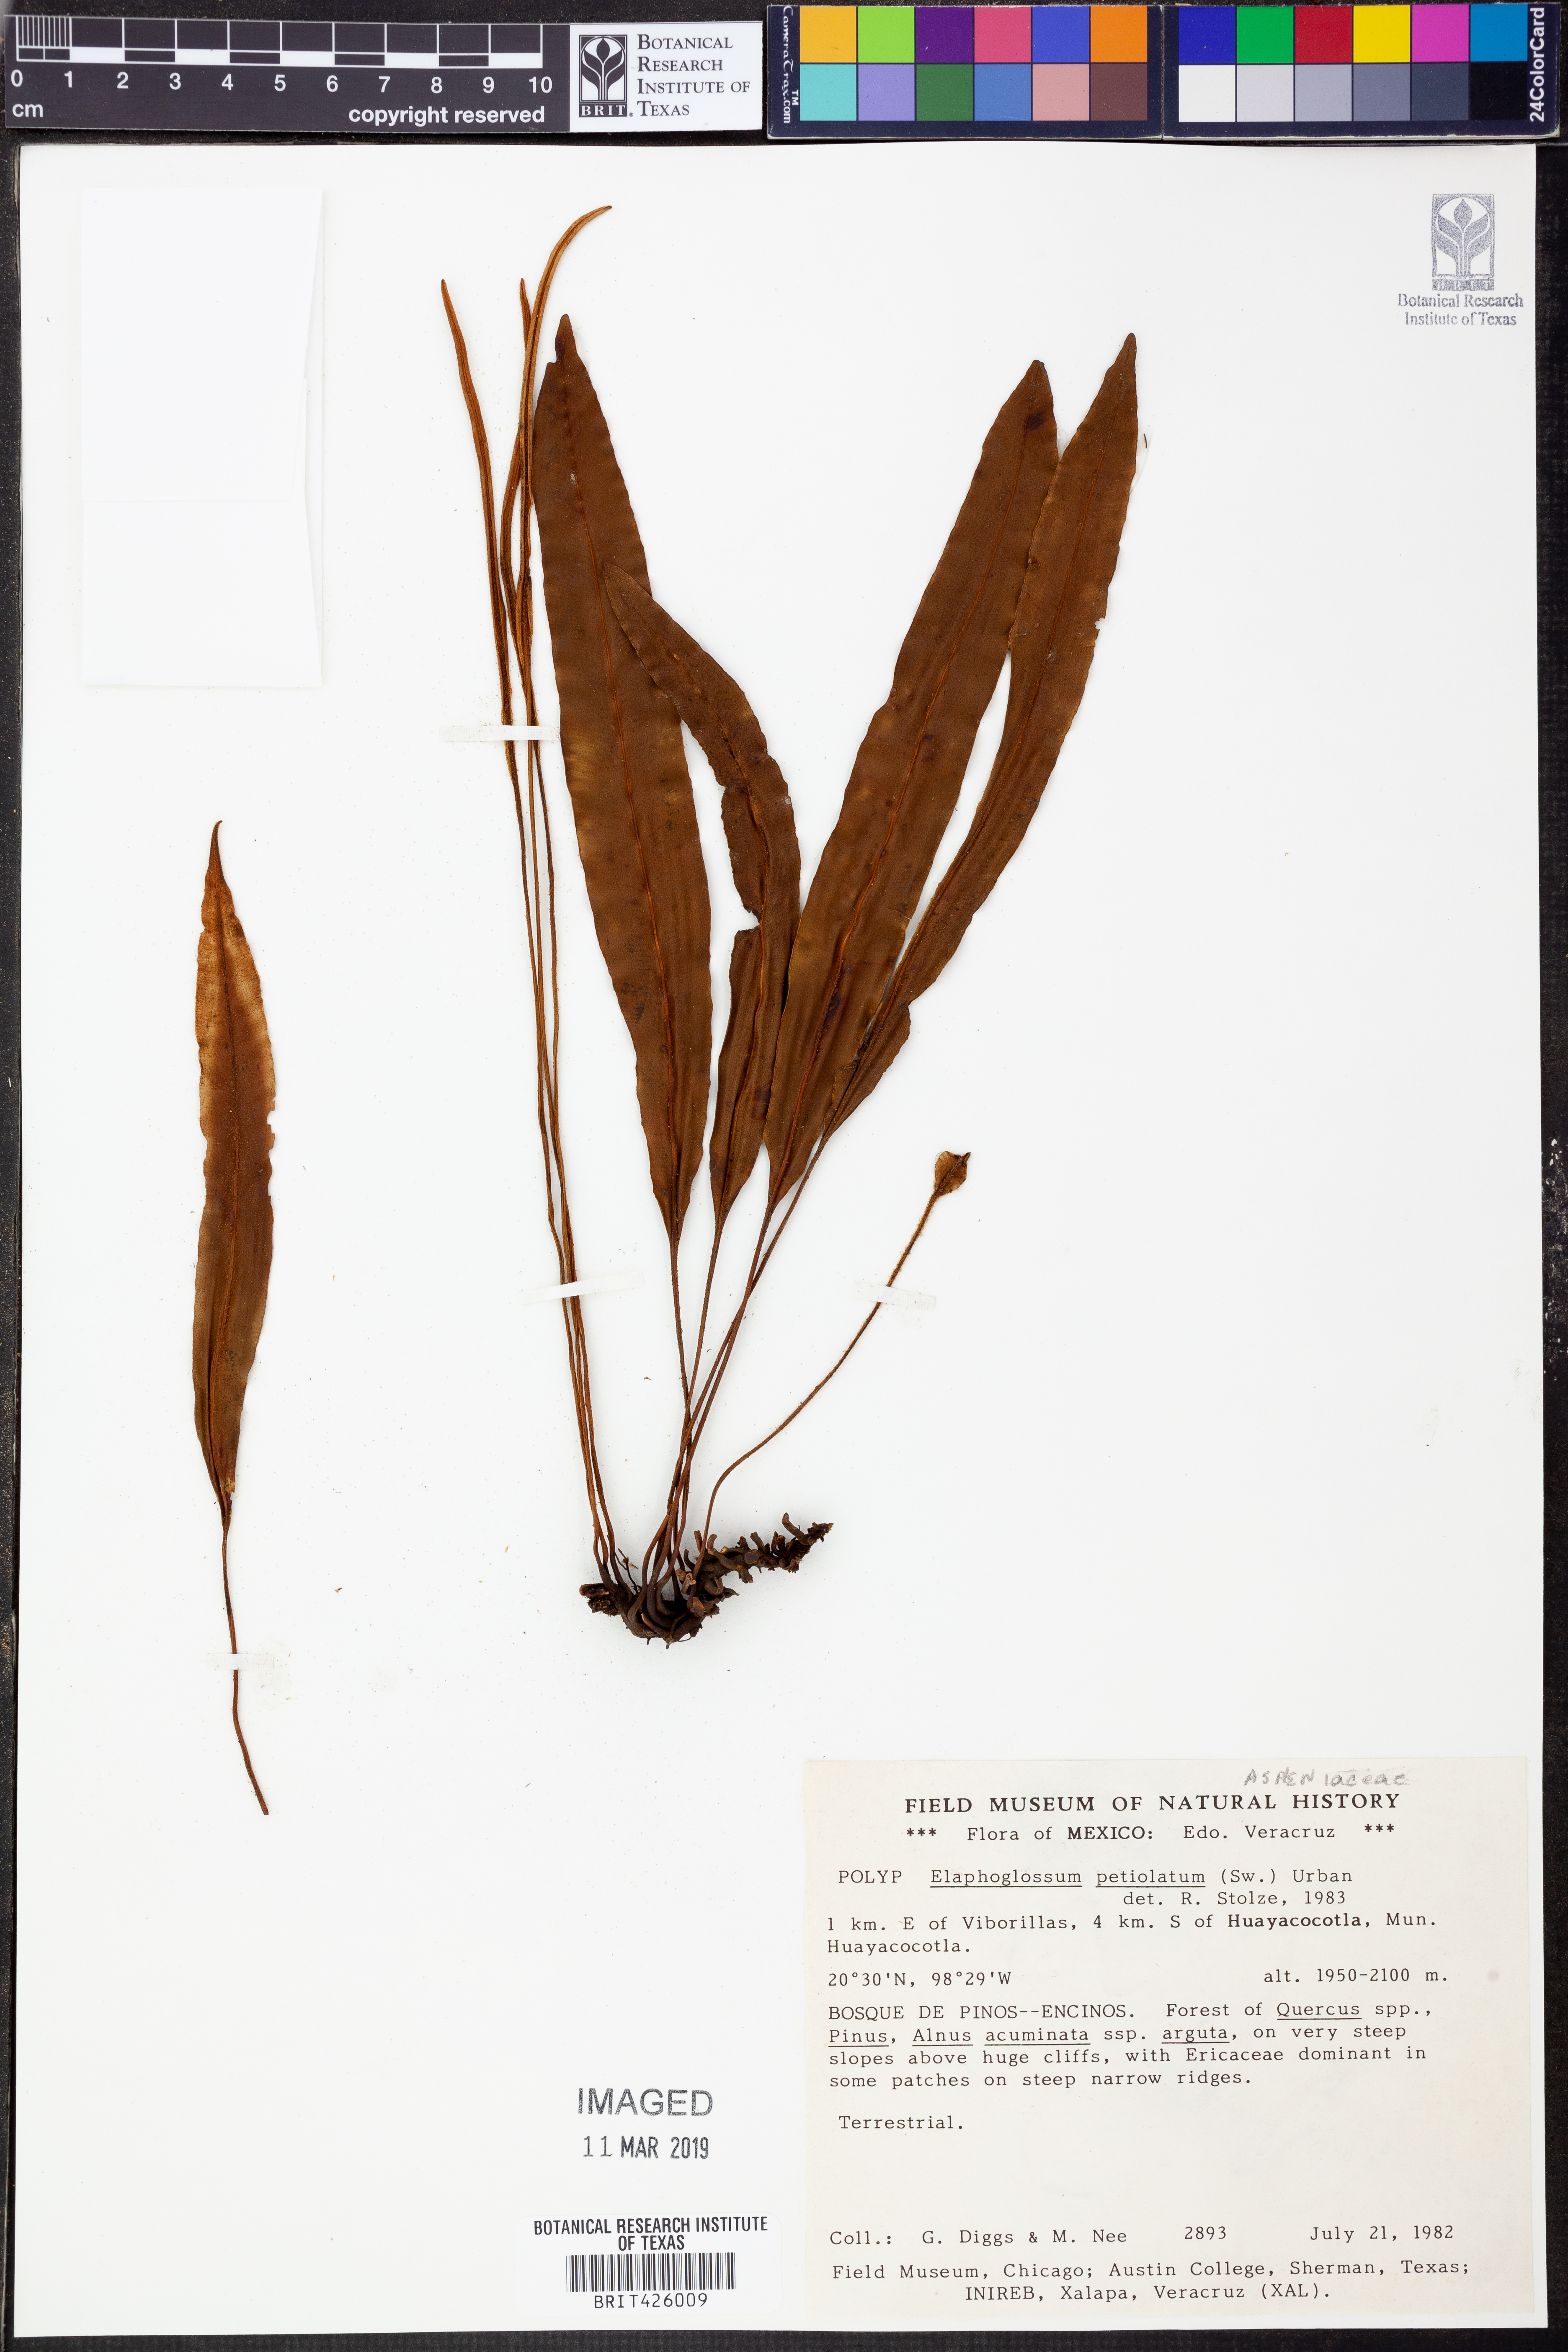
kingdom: Plantae
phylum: Tracheophyta
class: Polypodiopsida
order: Polypodiales
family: Dryopteridaceae
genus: Elaphoglossum
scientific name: Elaphoglossum petiolatum
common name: Graceful tonguefern
